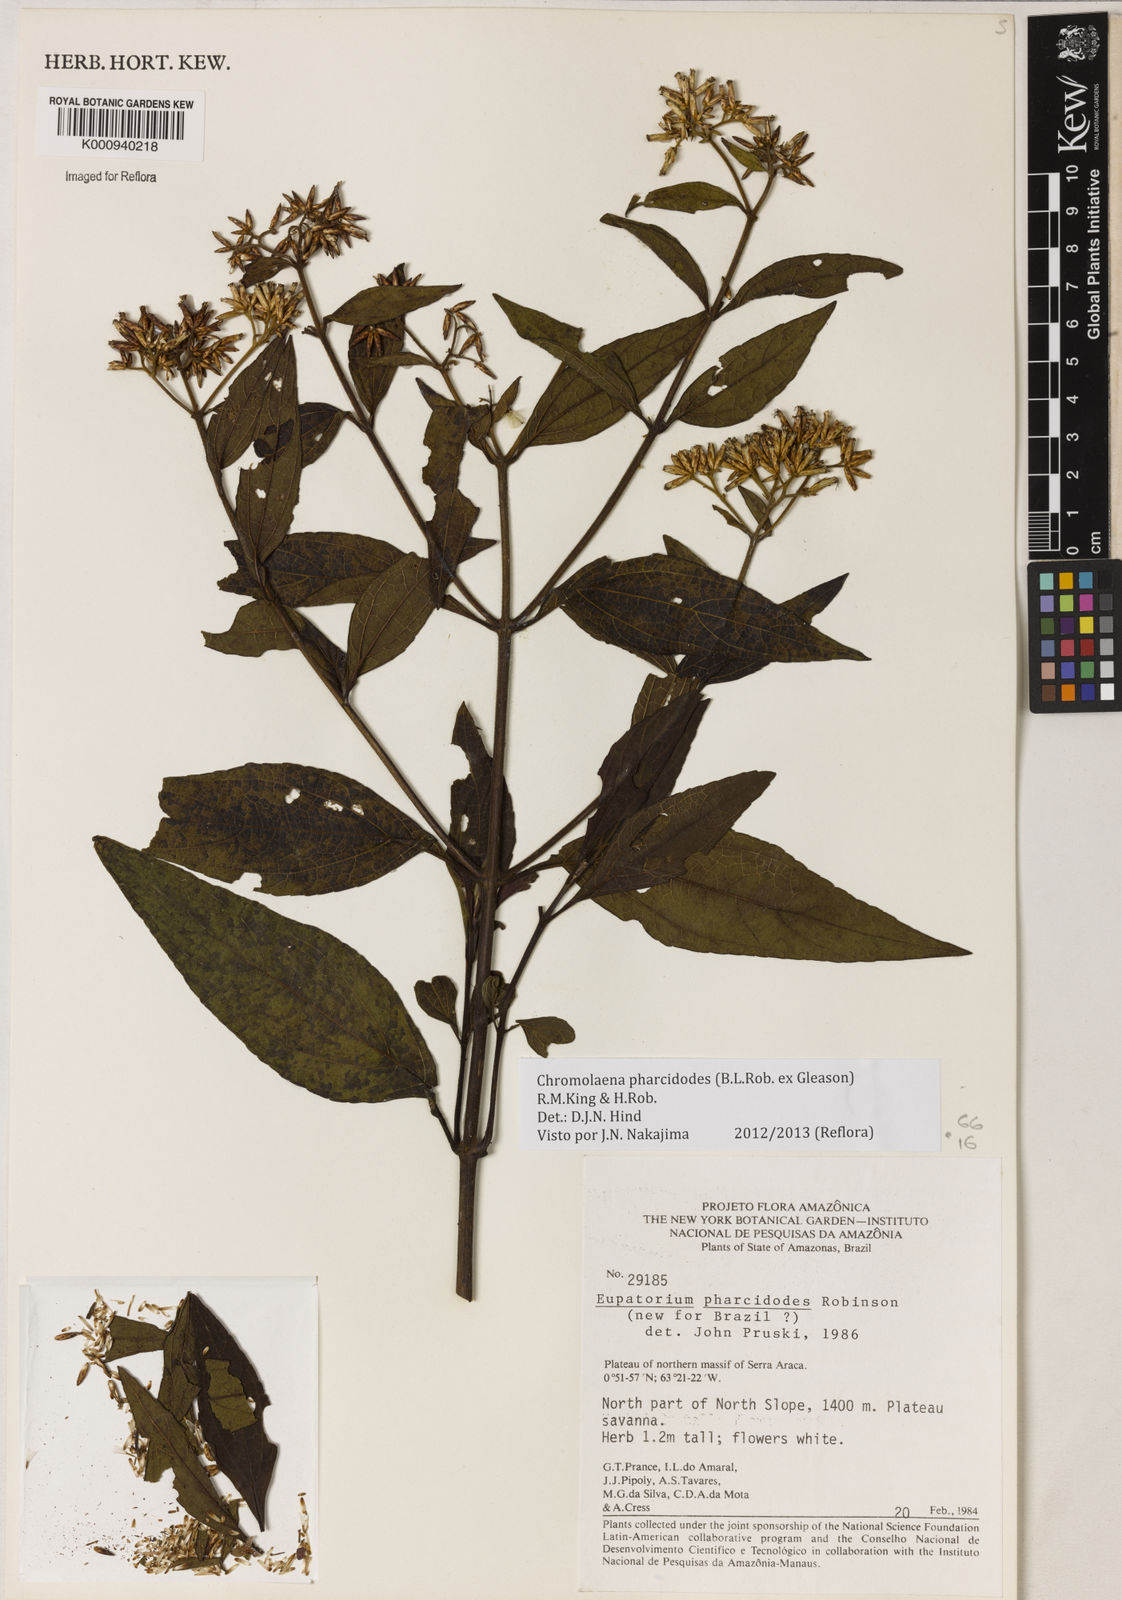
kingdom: Plantae
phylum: Tracheophyta
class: Magnoliopsida
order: Asterales
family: Asteraceae
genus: Chromolaena
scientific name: Chromolaena pharcidodes
